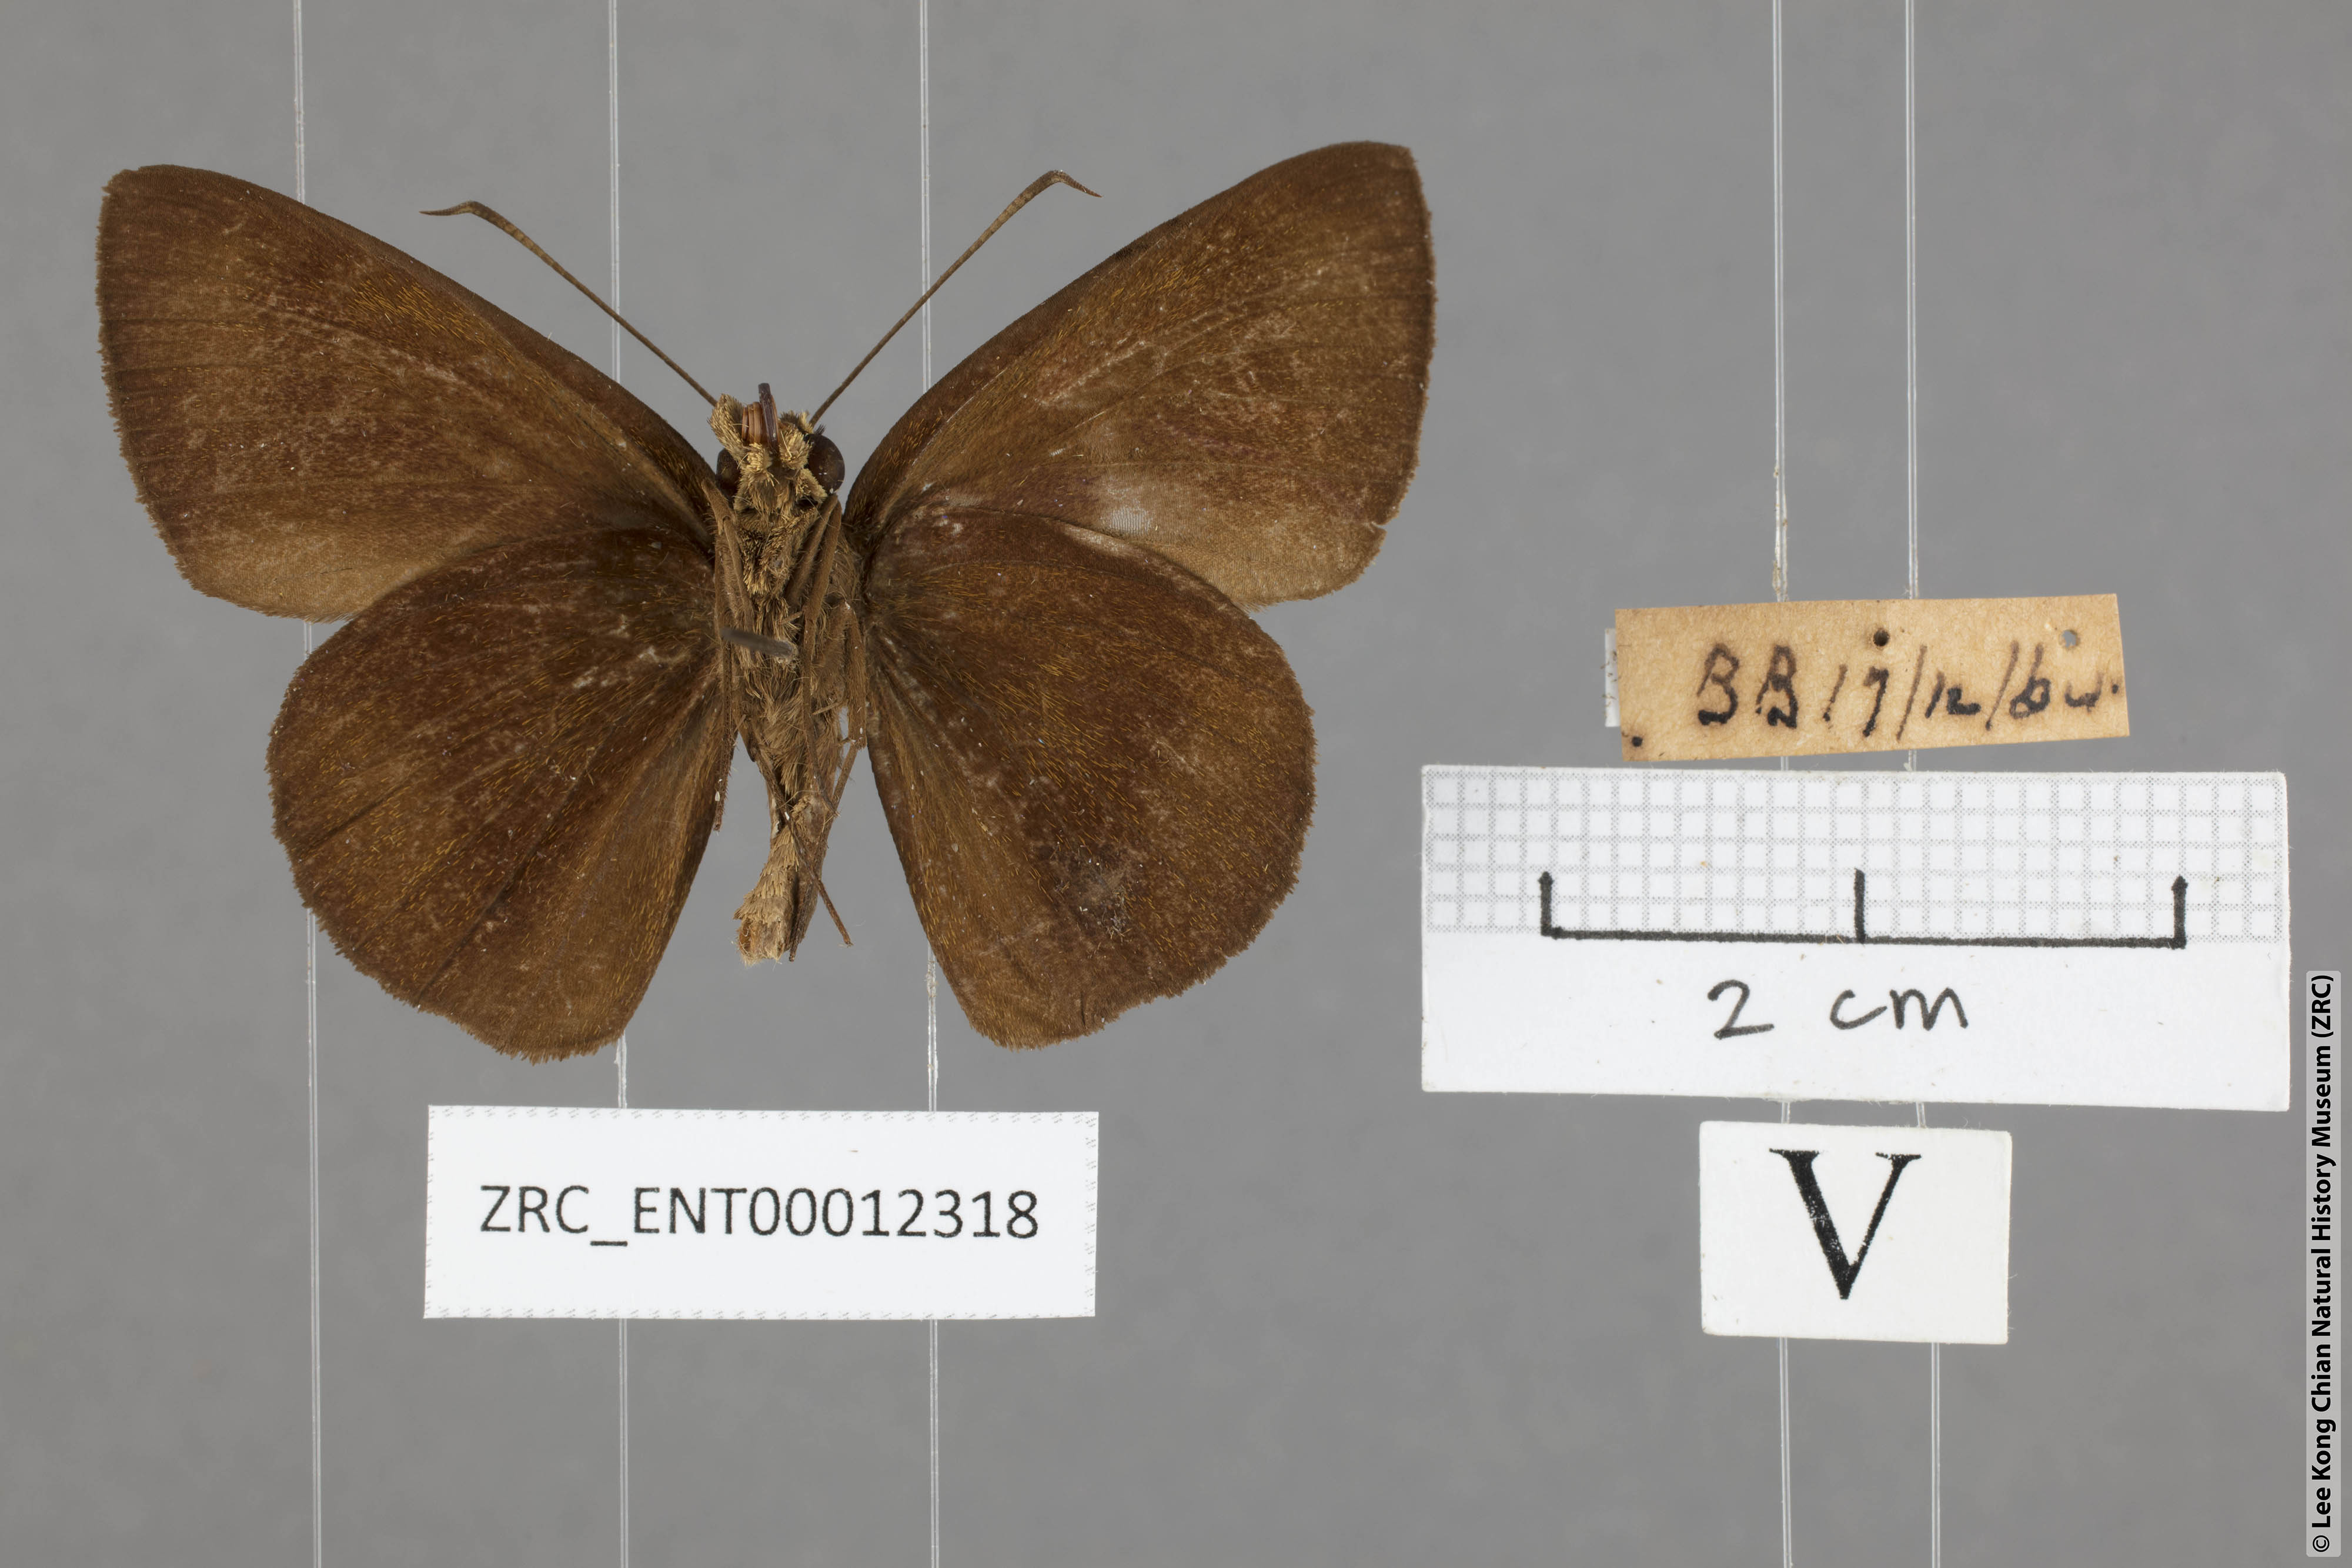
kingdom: Animalia
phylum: Arthropoda
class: Insecta
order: Lepidoptera
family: Hesperiidae
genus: Ancistroides
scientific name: Ancistroides nigrita
